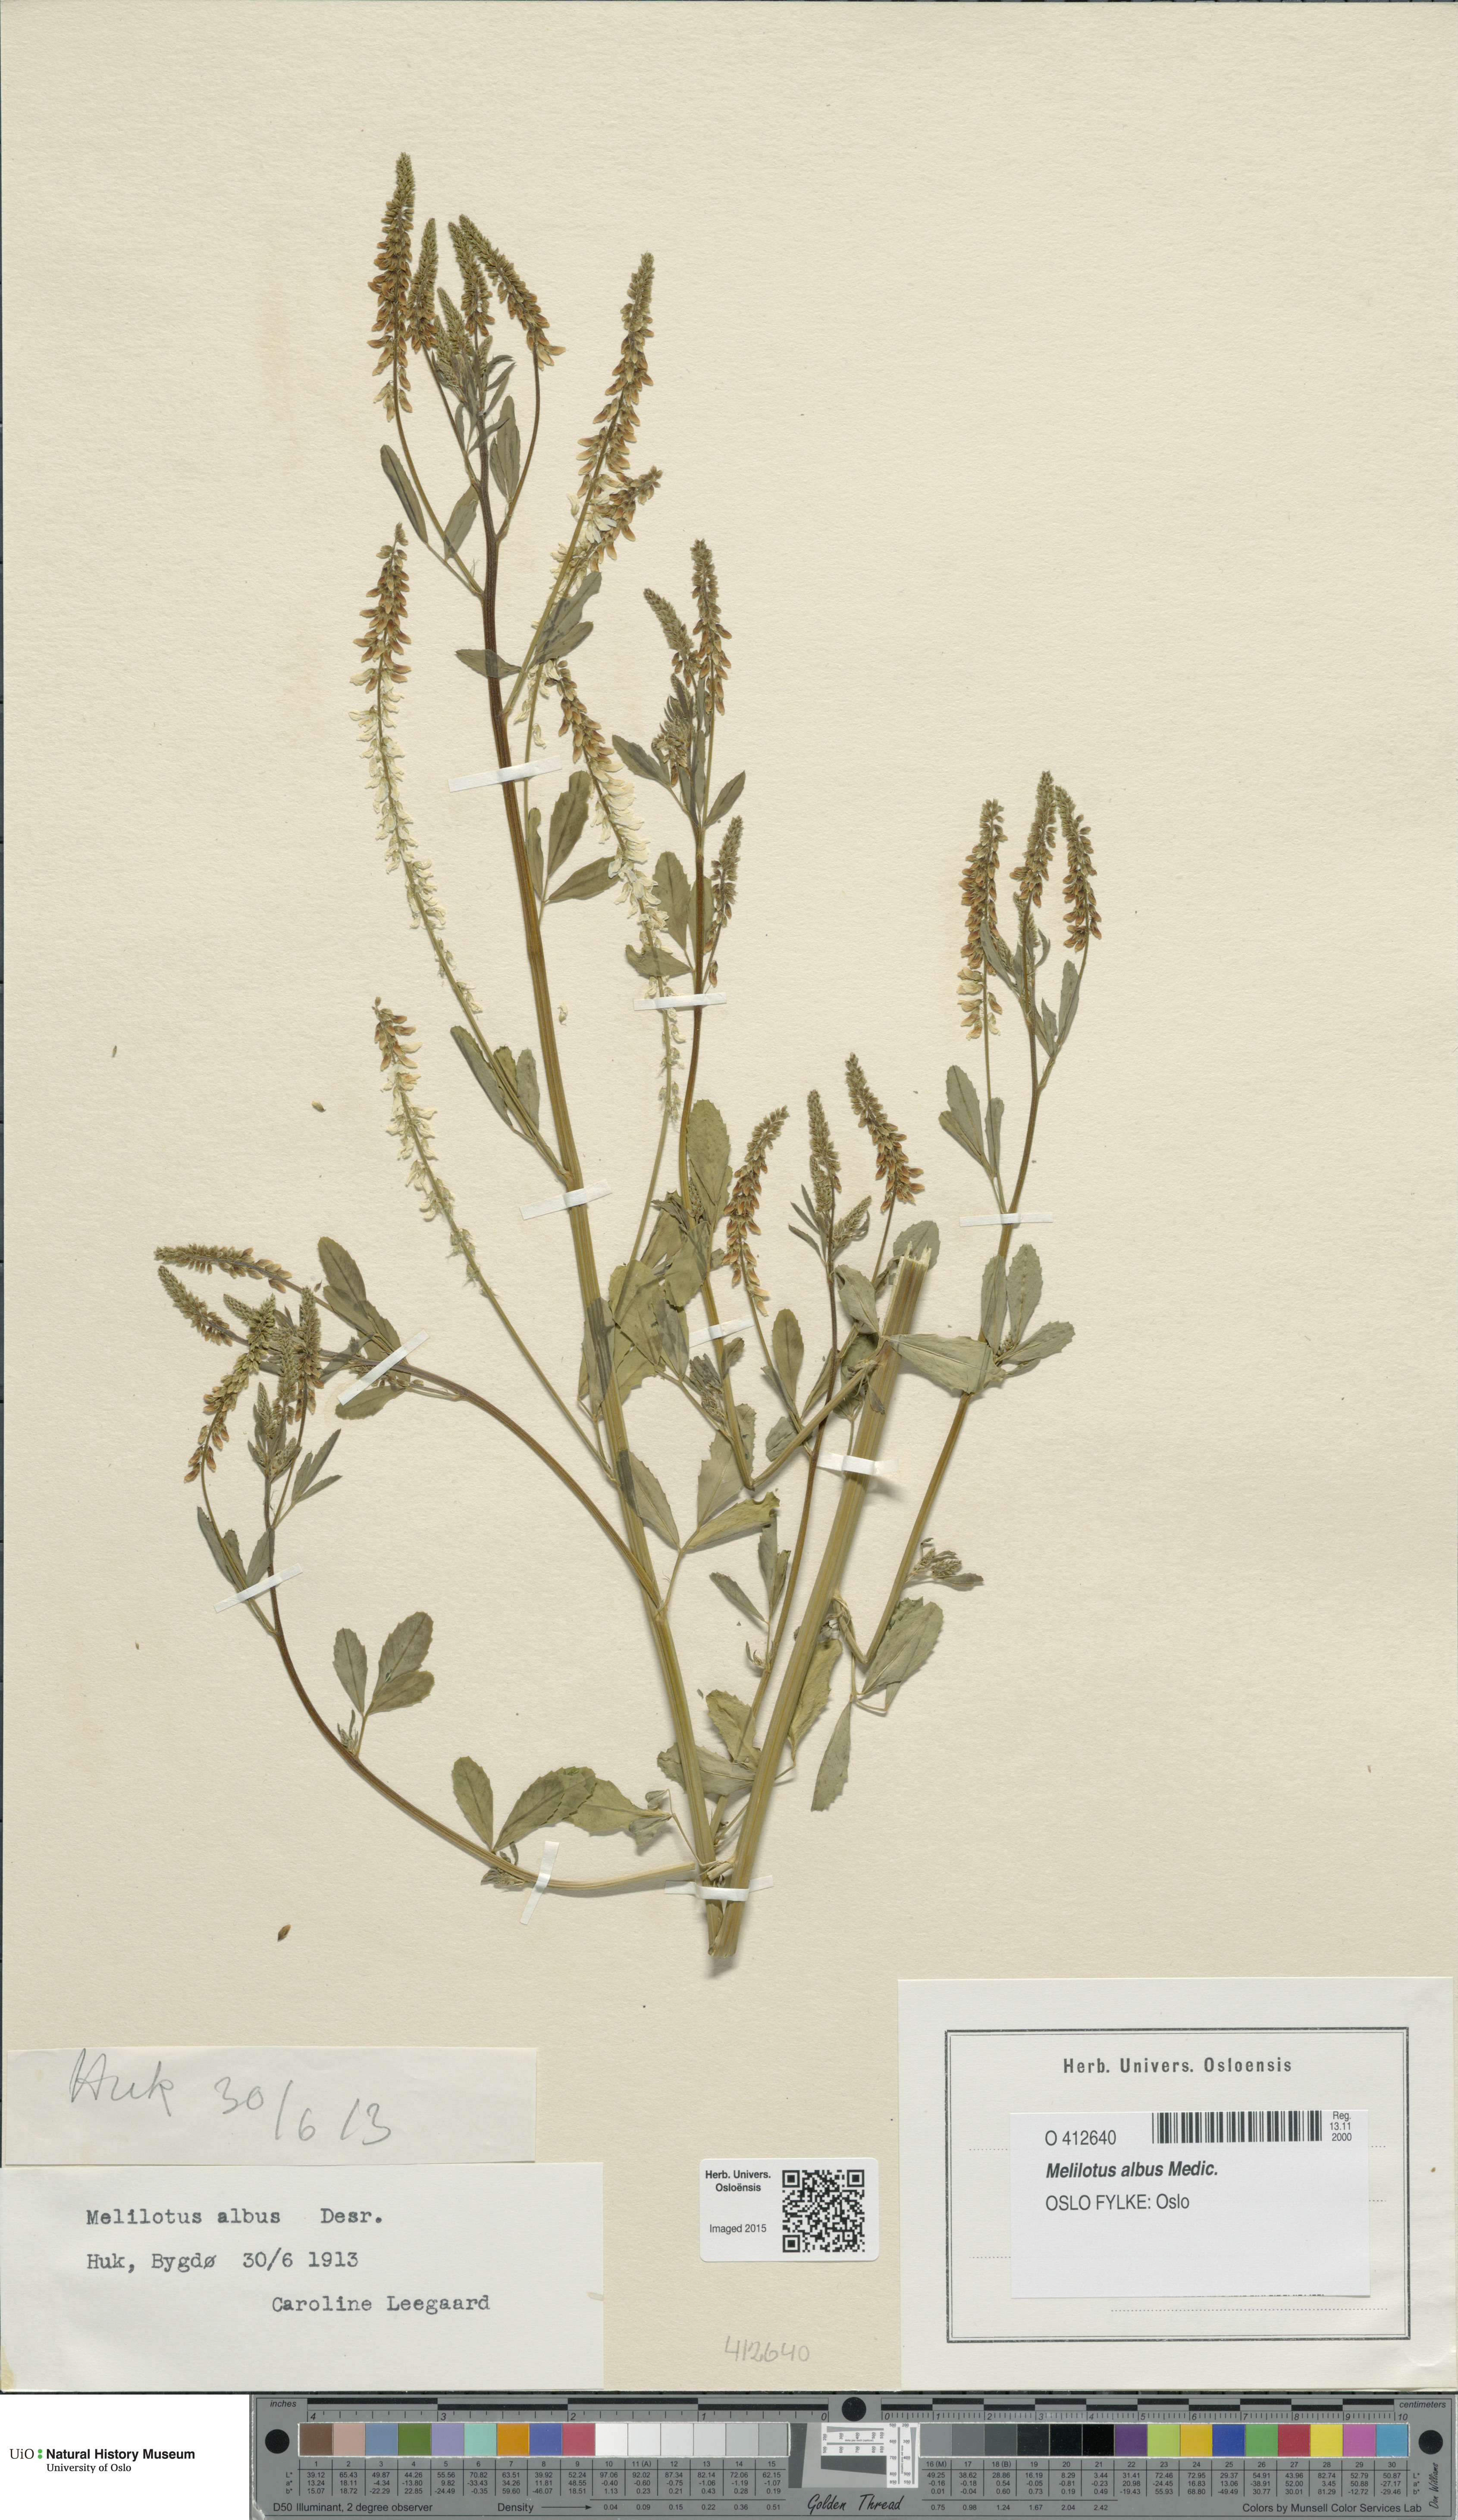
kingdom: Plantae
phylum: Tracheophyta
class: Magnoliopsida
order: Fabales
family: Fabaceae
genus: Melilotus
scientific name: Melilotus albus
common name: White melilot
